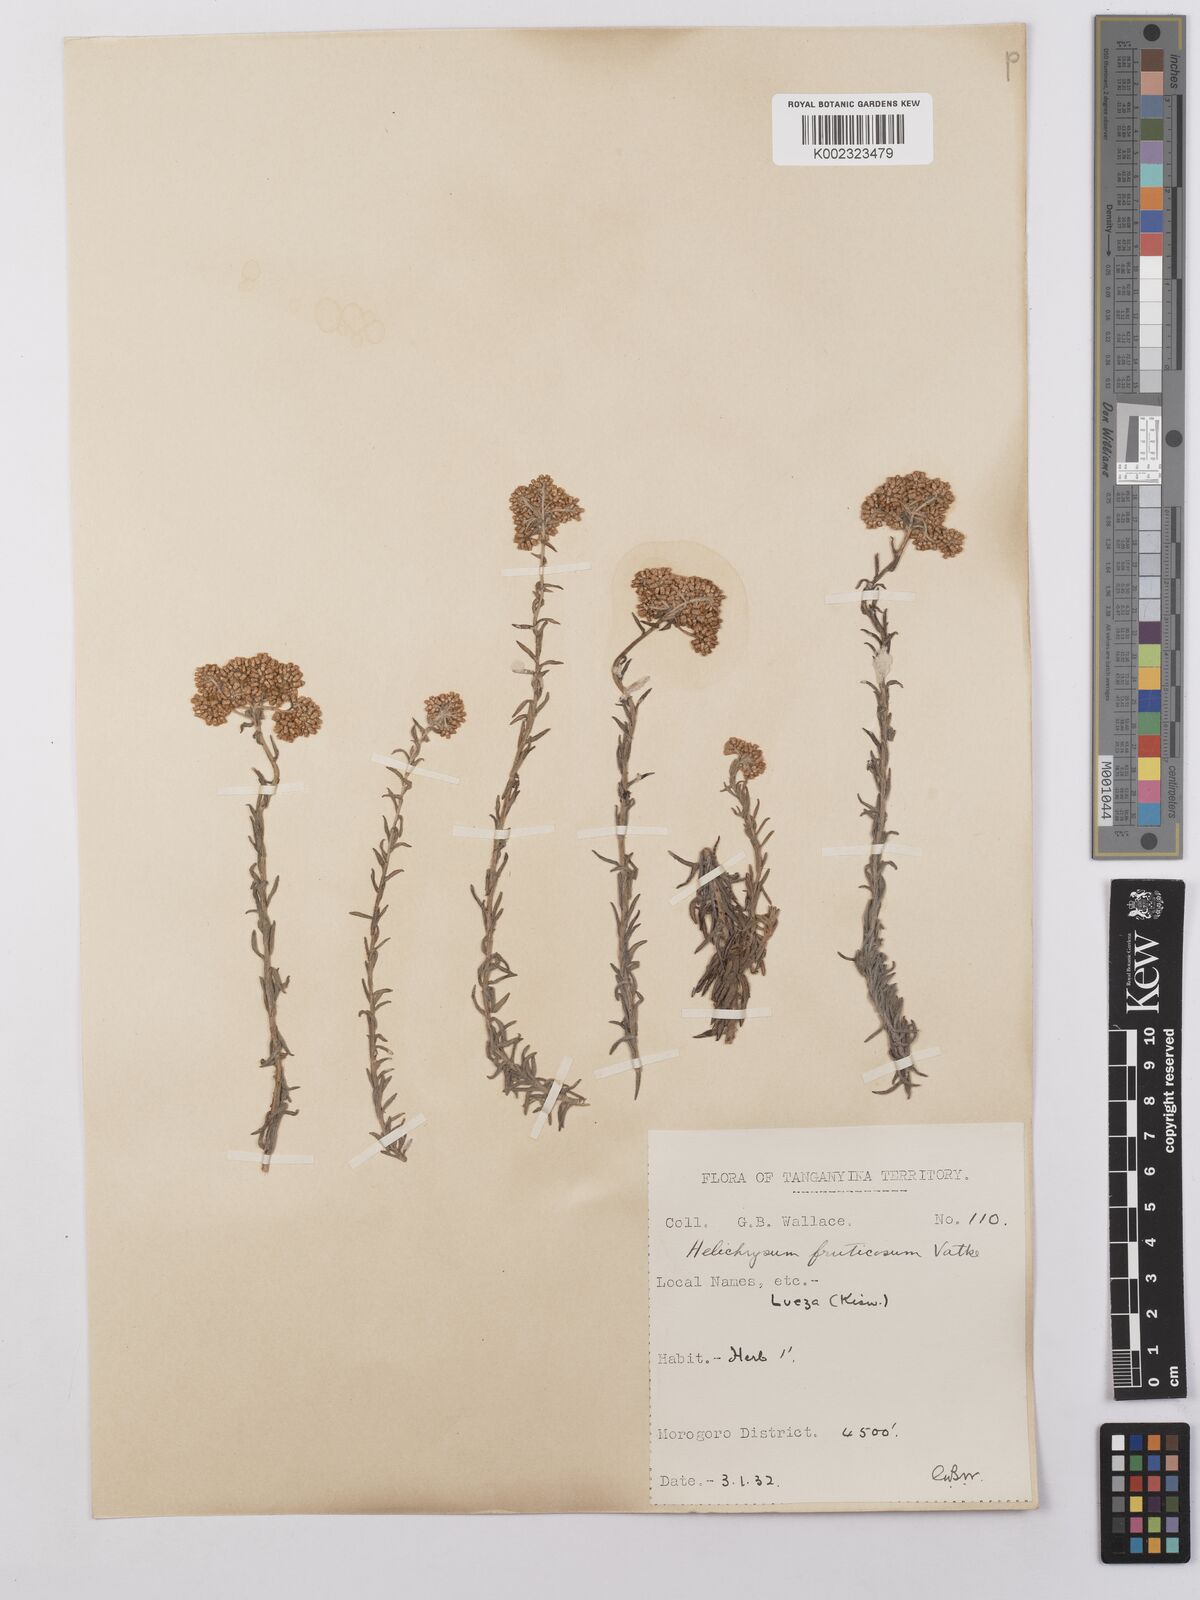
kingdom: Plantae
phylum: Tracheophyta
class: Magnoliopsida
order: Asterales
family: Asteraceae
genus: Helichrysum
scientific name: Helichrysum forskahlii
